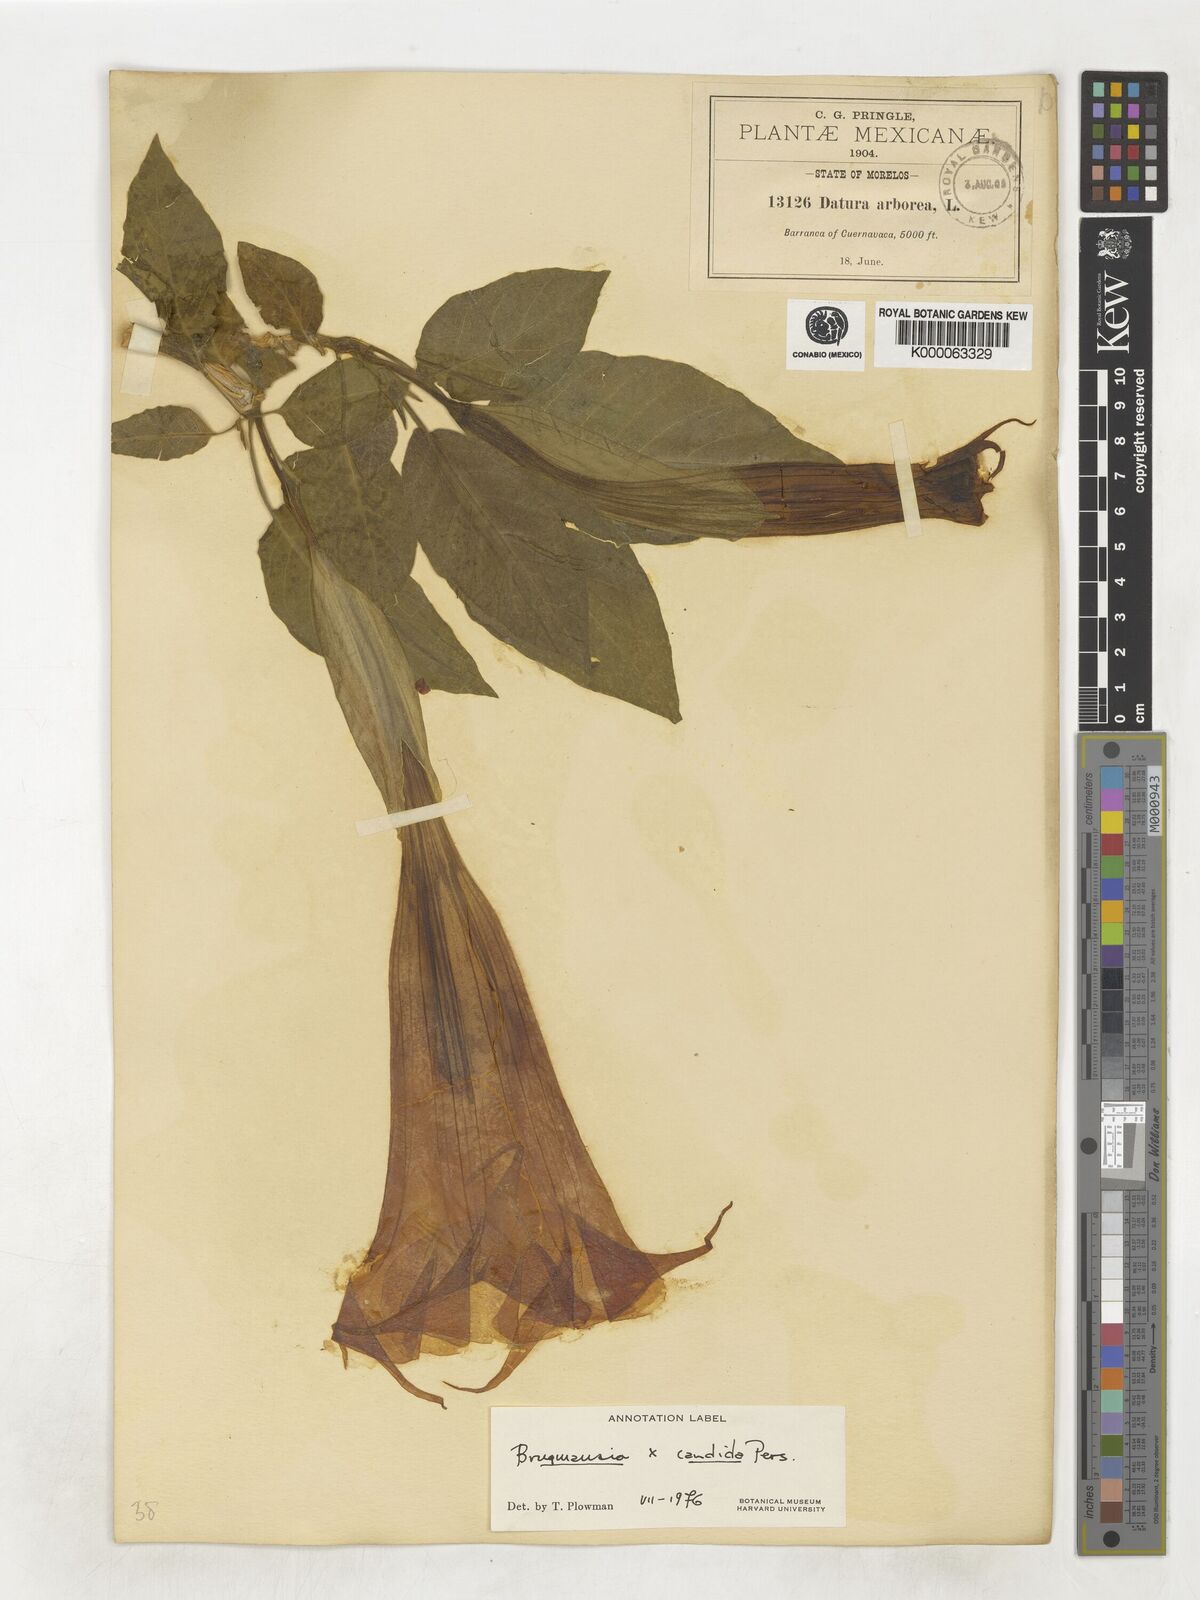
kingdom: Plantae
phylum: Tracheophyta
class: Magnoliopsida
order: Solanales
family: Solanaceae
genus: Brugmansia
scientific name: Brugmansia candida
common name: Angel's-trumpet
